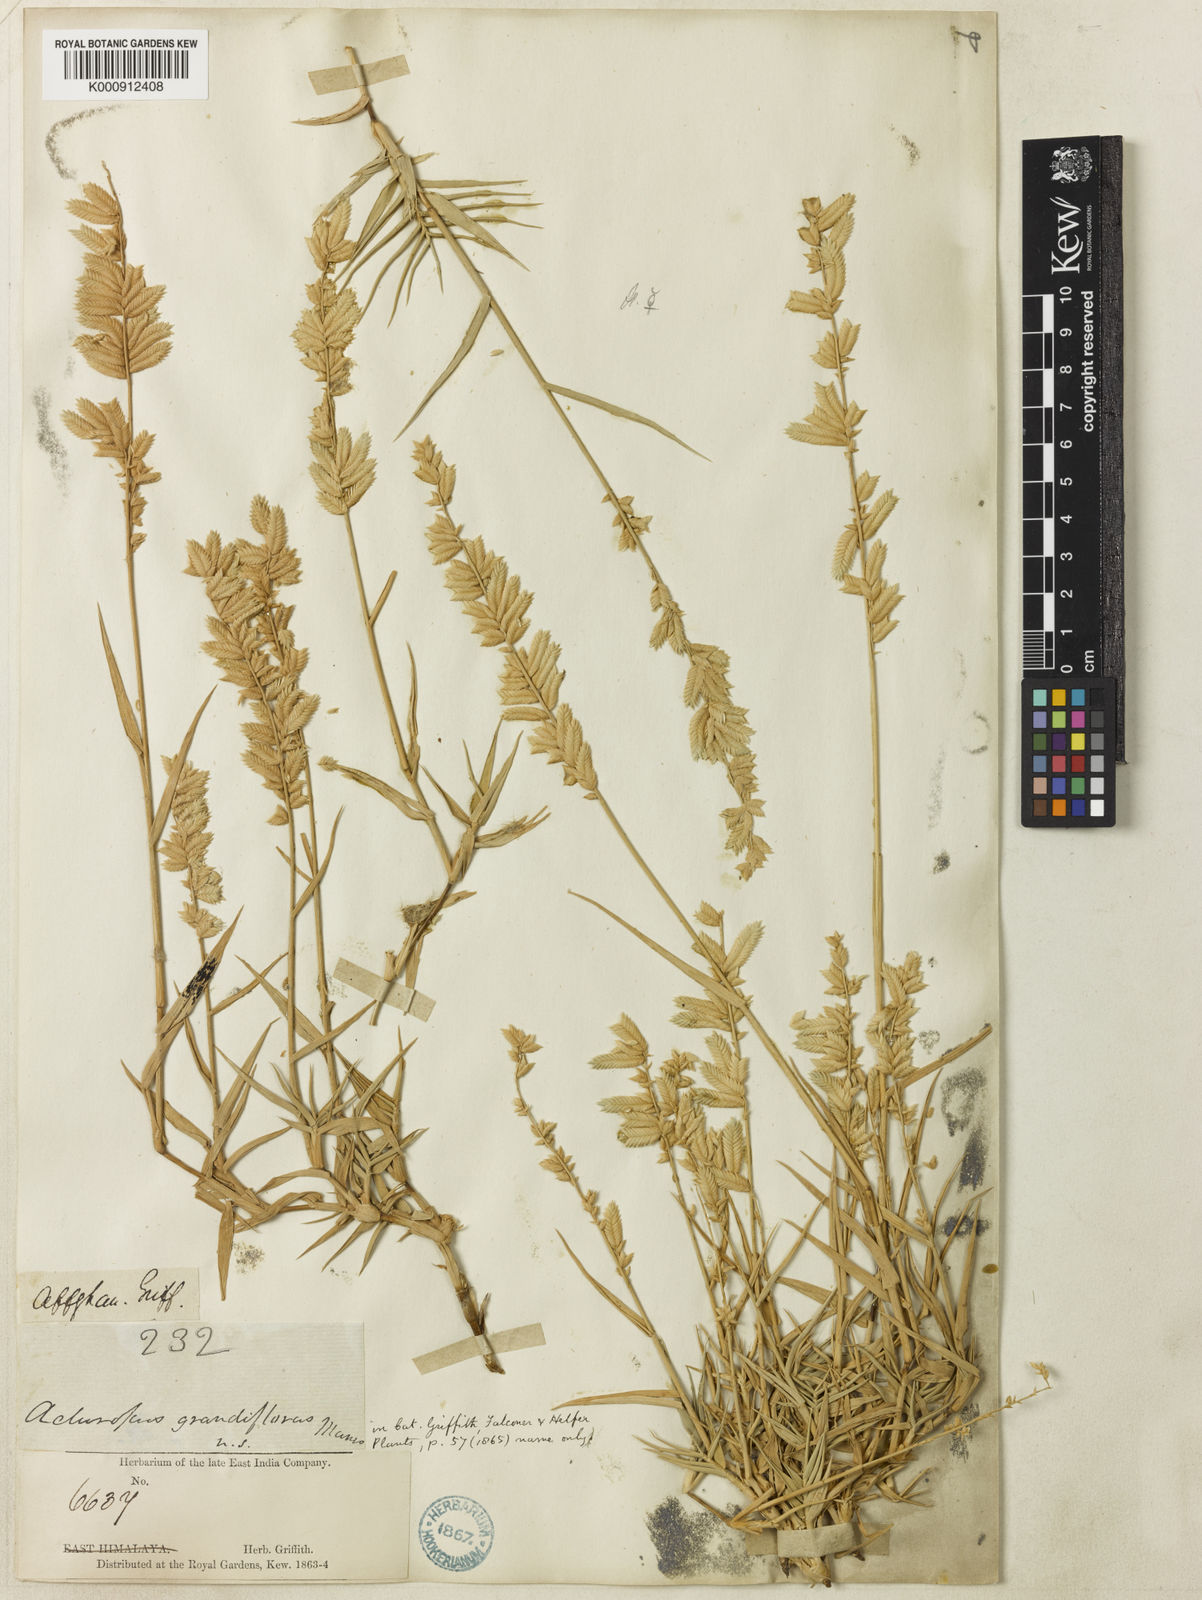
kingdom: Plantae
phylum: Tracheophyta
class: Liliopsida
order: Poales
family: Poaceae
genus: Aeluropus
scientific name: Aeluropus macrostachyus
